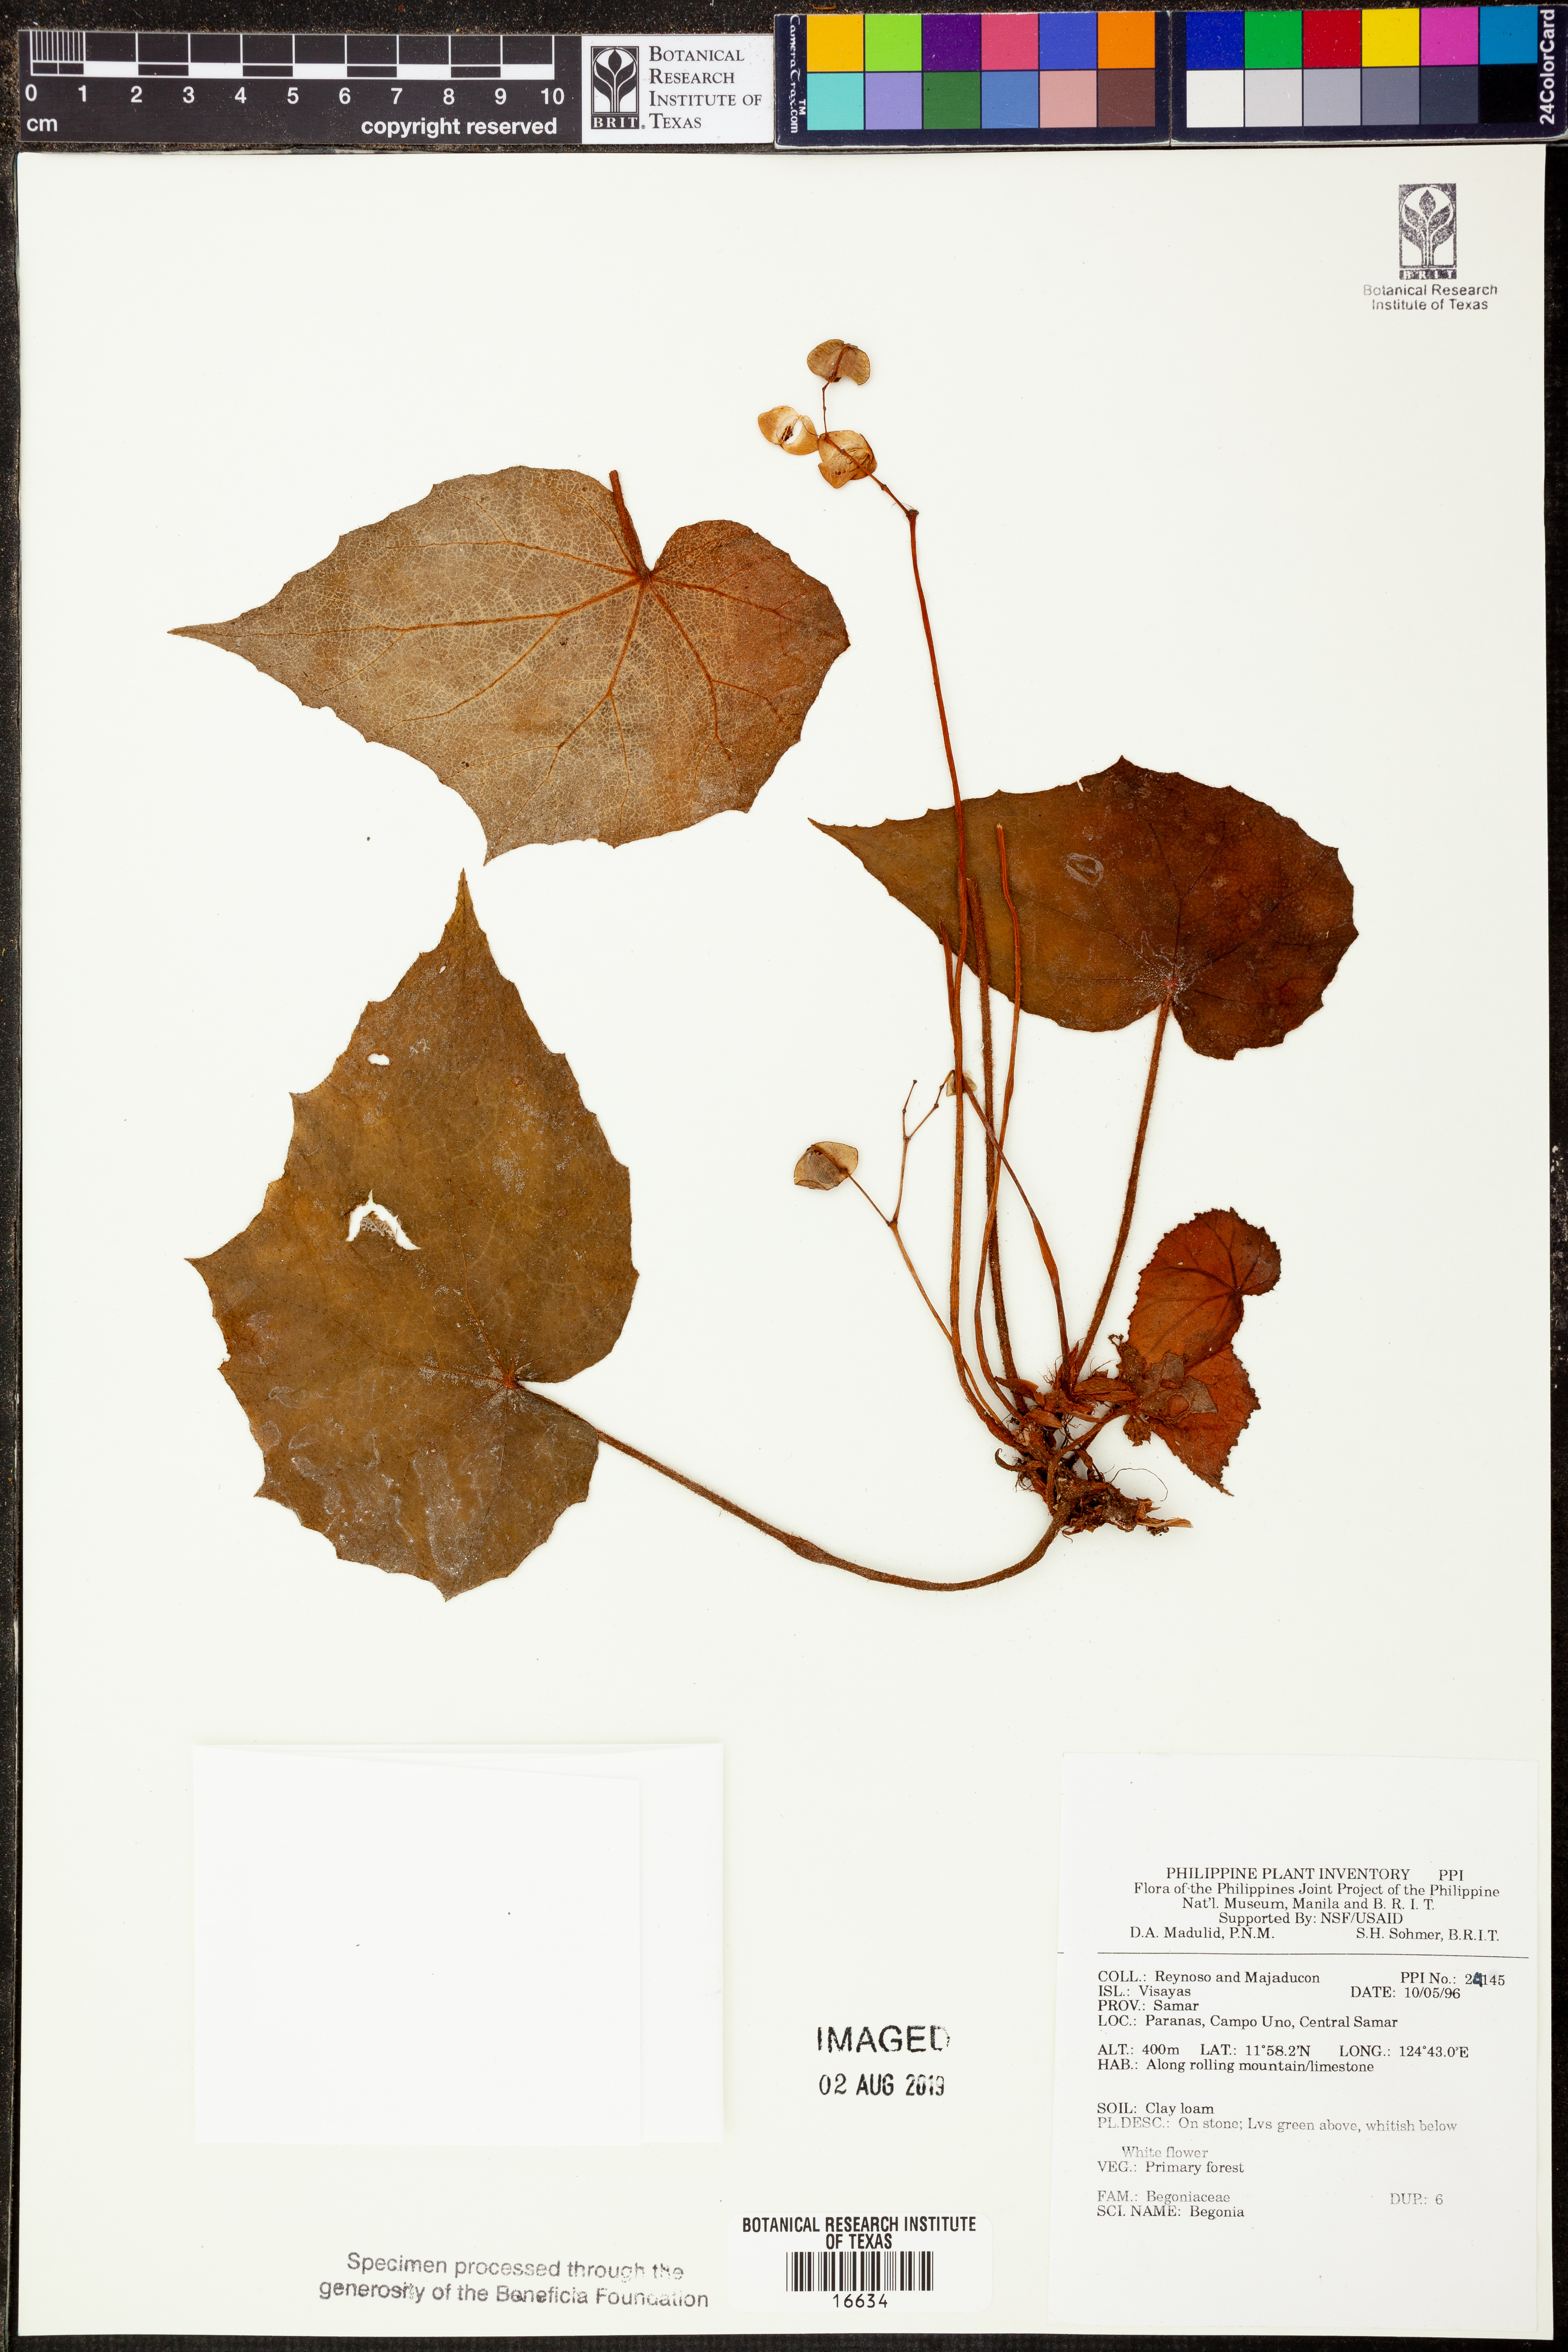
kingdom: Plantae
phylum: Tracheophyta
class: Magnoliopsida
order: Cucurbitales
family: Begoniaceae
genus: Begonia
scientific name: Begonia
